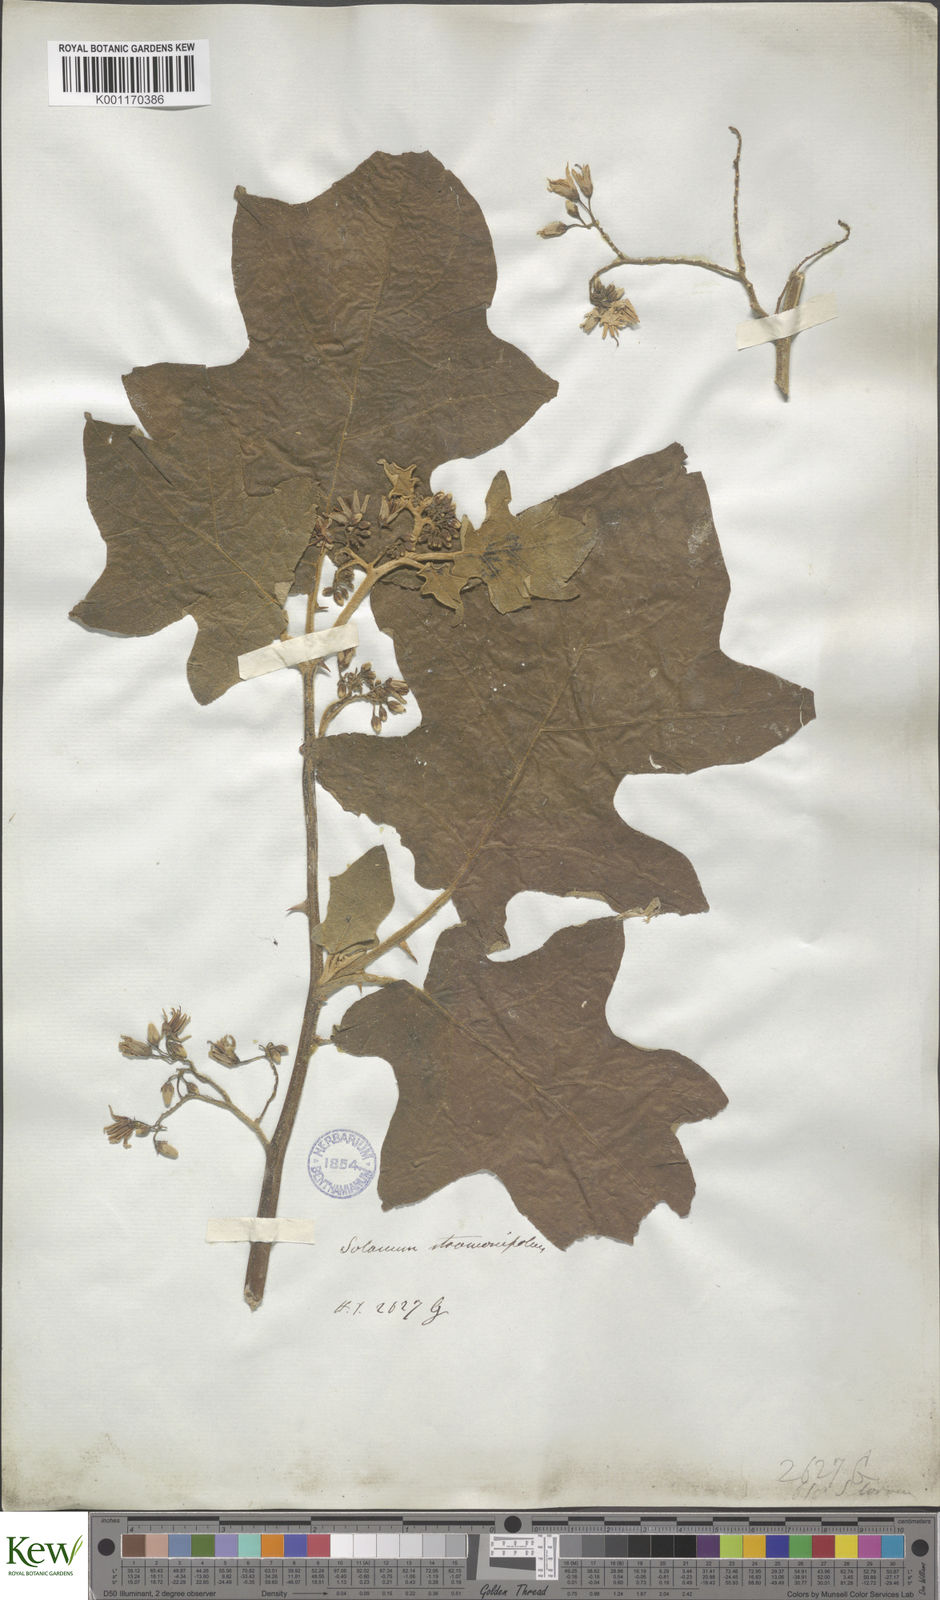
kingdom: Plantae
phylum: Tracheophyta
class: Magnoliopsida
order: Solanales
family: Solanaceae
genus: Solanum
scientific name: Solanum torvum
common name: Turkey berry
